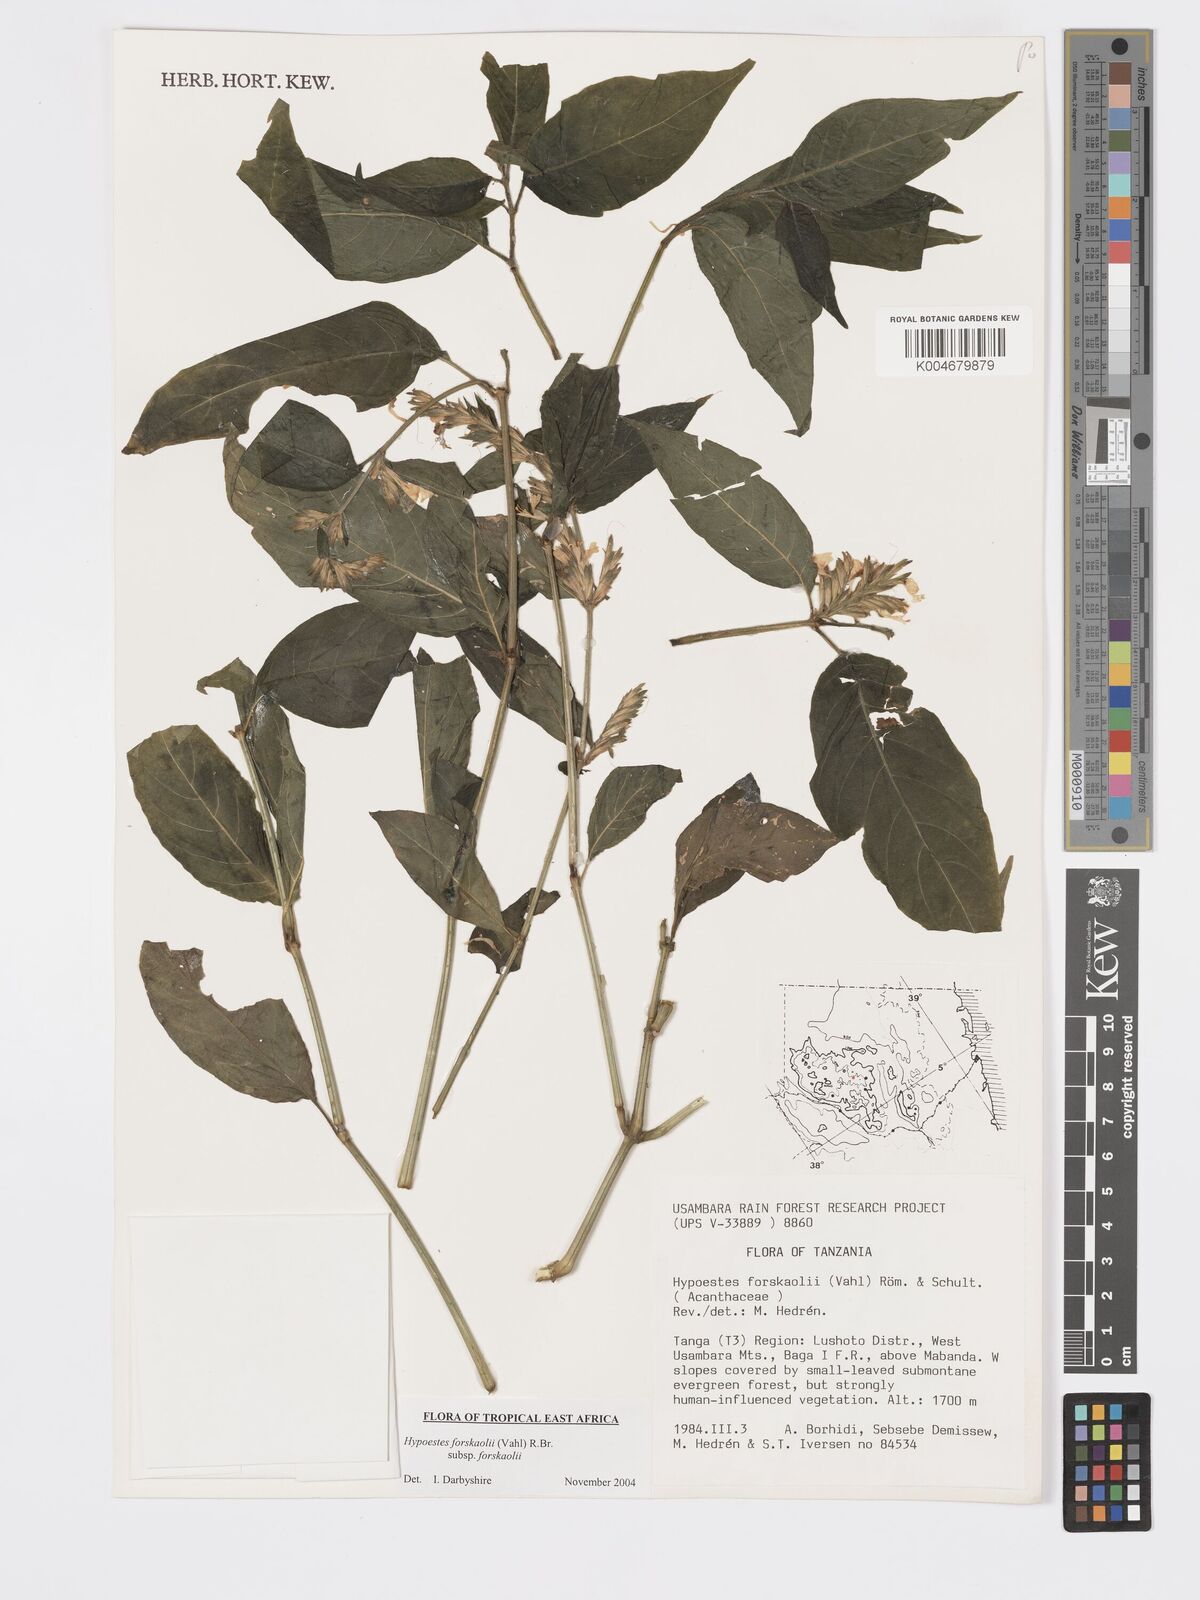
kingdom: Plantae
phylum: Tracheophyta
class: Magnoliopsida
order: Lamiales
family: Acanthaceae
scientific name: Acanthaceae
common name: Acanthaceae
